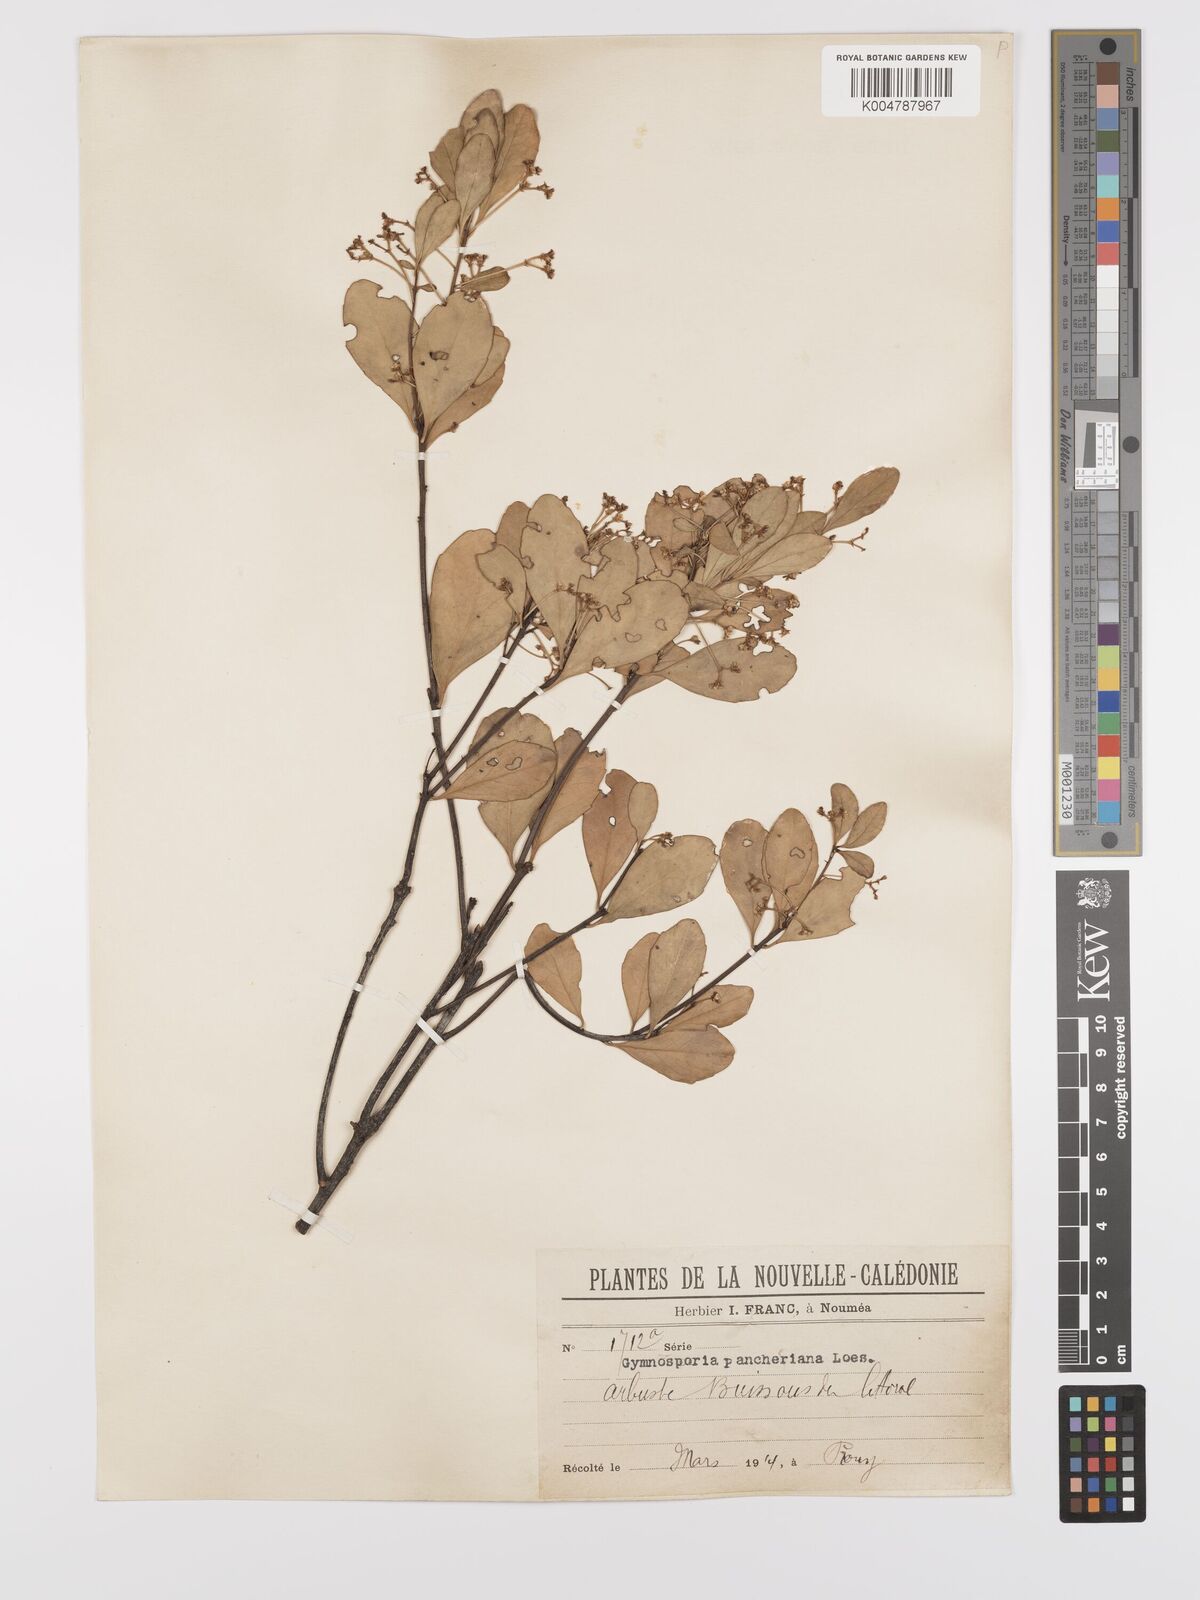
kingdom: Plantae
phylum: Tracheophyta
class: Magnoliopsida
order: Celastrales
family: Celastraceae
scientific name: Celastraceae
